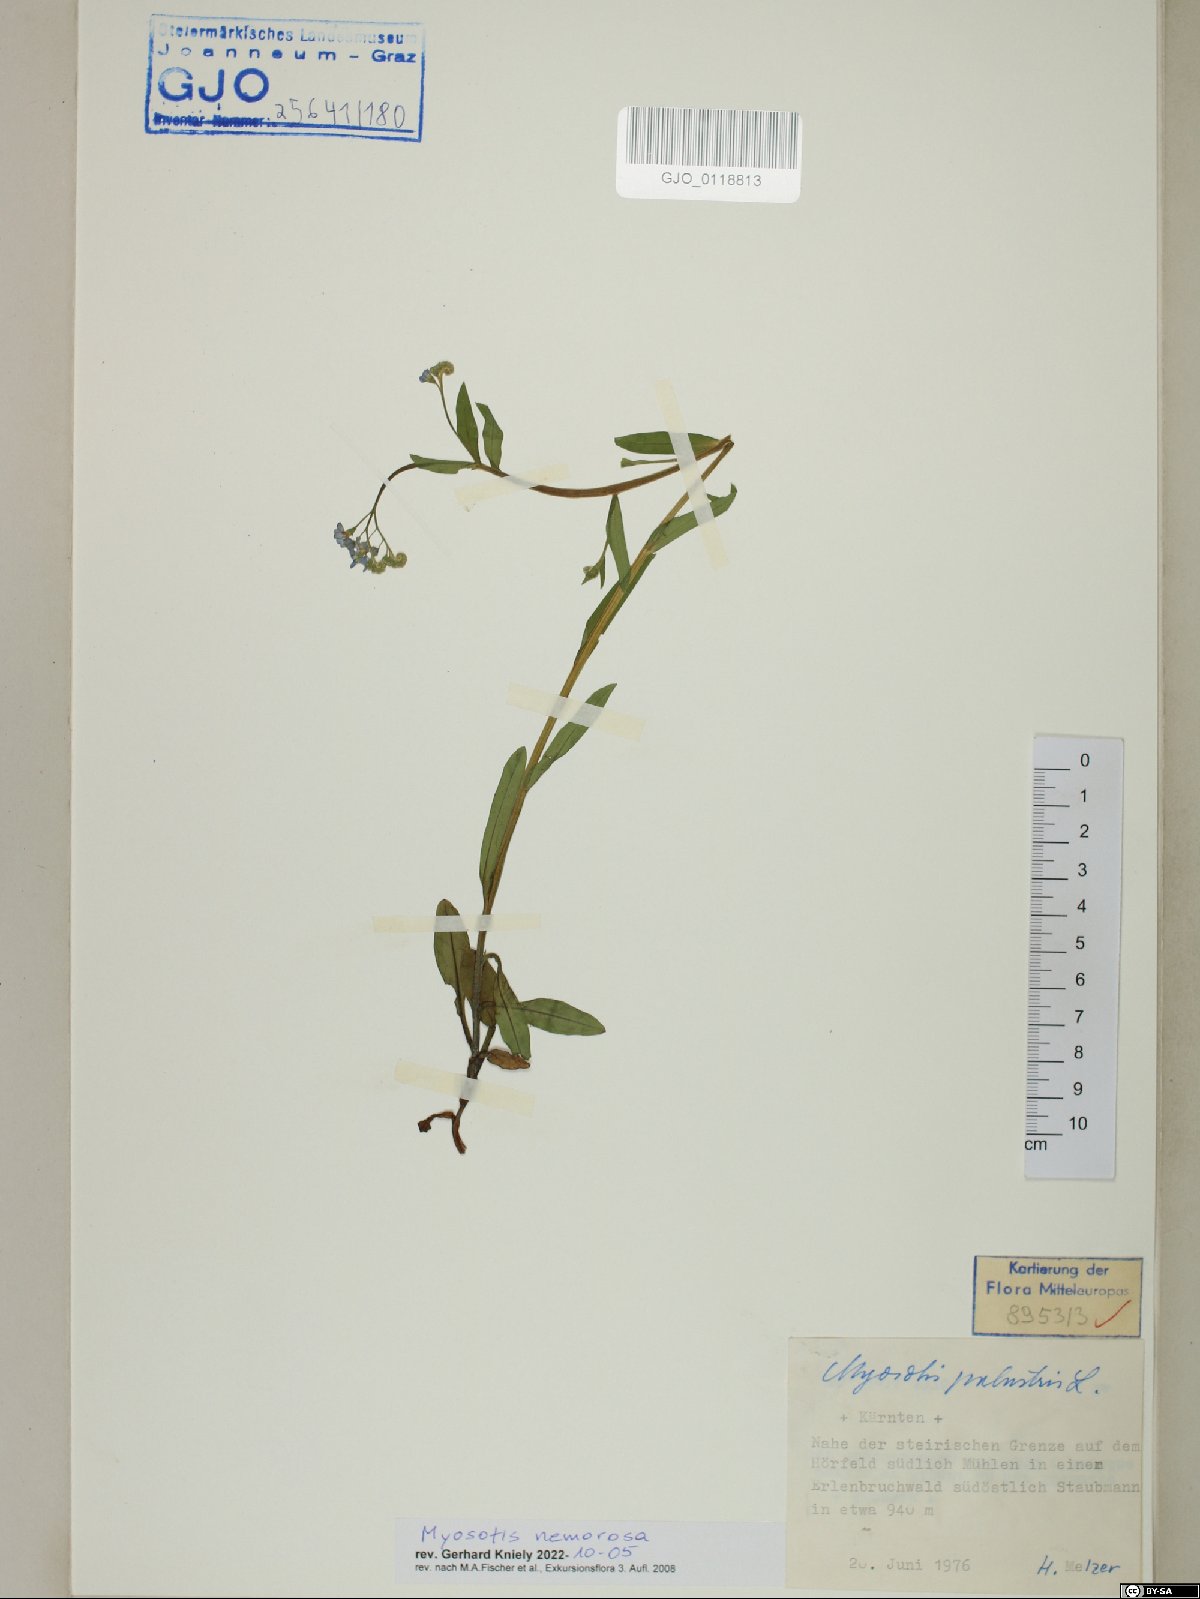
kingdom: Plantae
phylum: Tracheophyta
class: Magnoliopsida
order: Boraginales
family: Boraginaceae
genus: Myosotis
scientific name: Myosotis nemorosa
